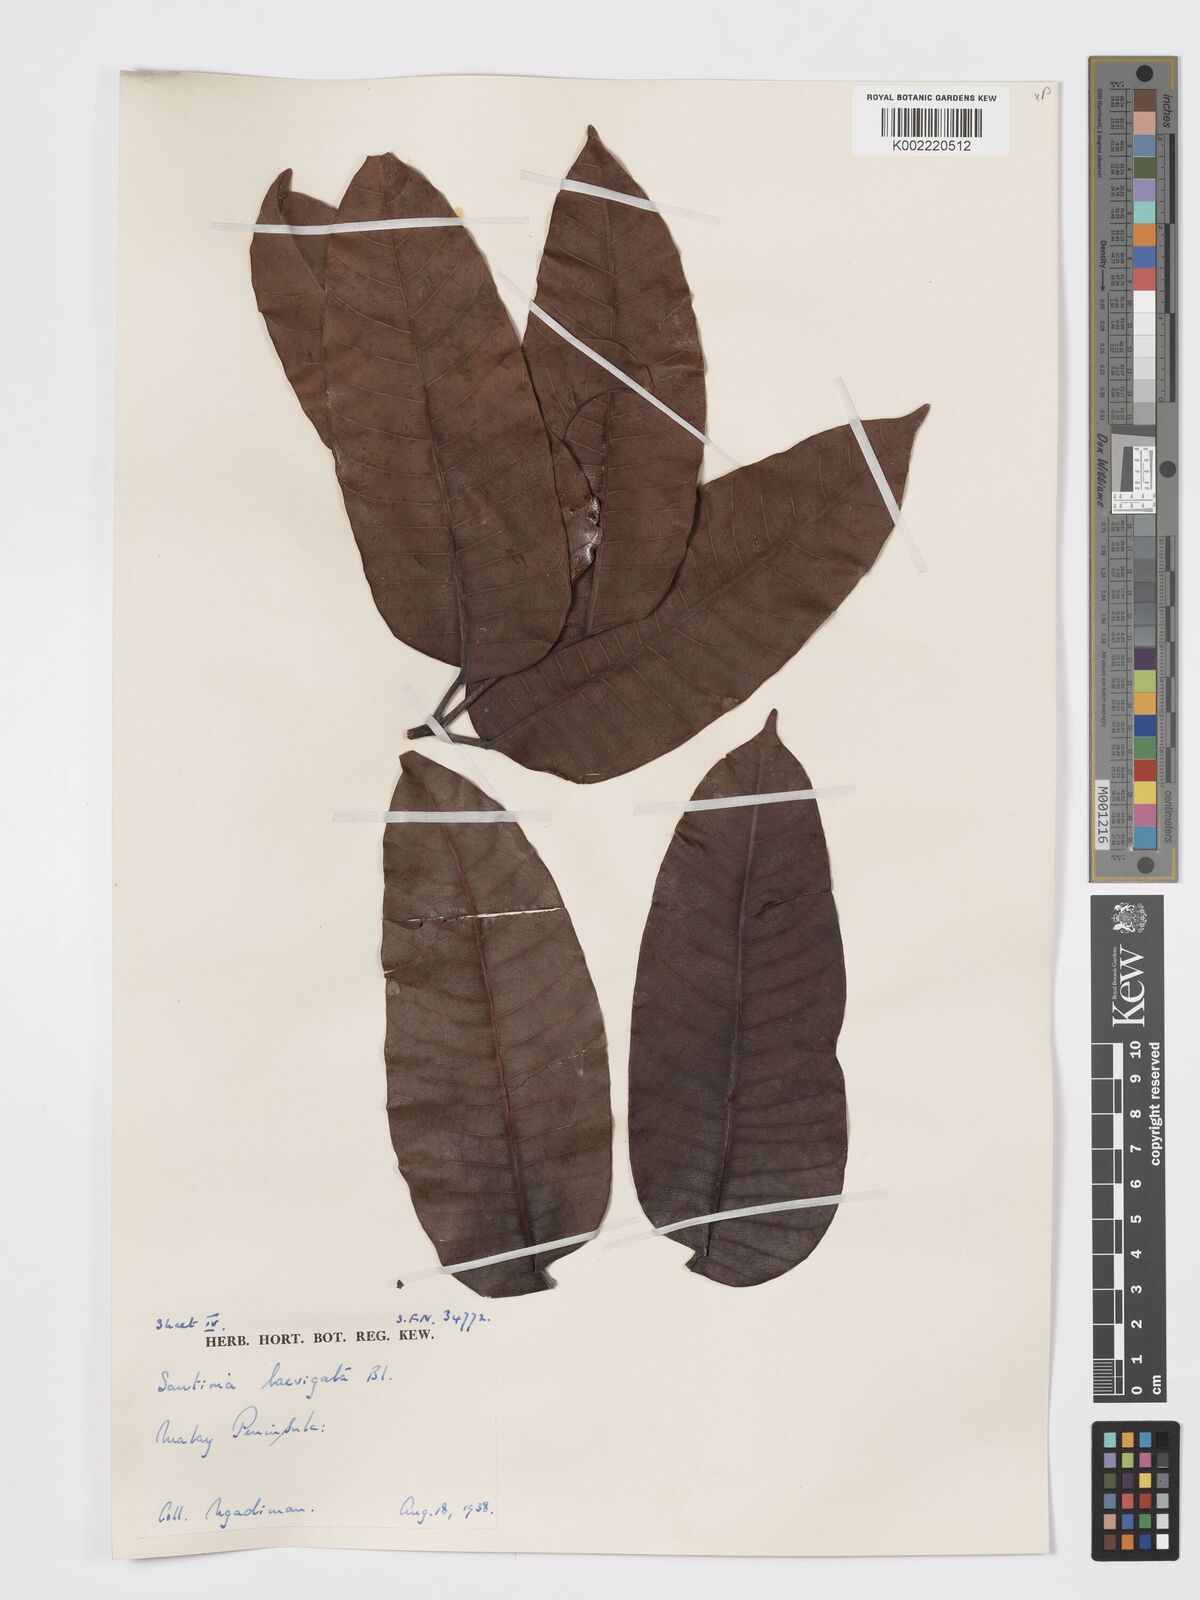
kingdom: Plantae
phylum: Tracheophyta
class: Magnoliopsida
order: Sapindales
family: Burseraceae
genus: Santiria
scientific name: Santiria laevigata
